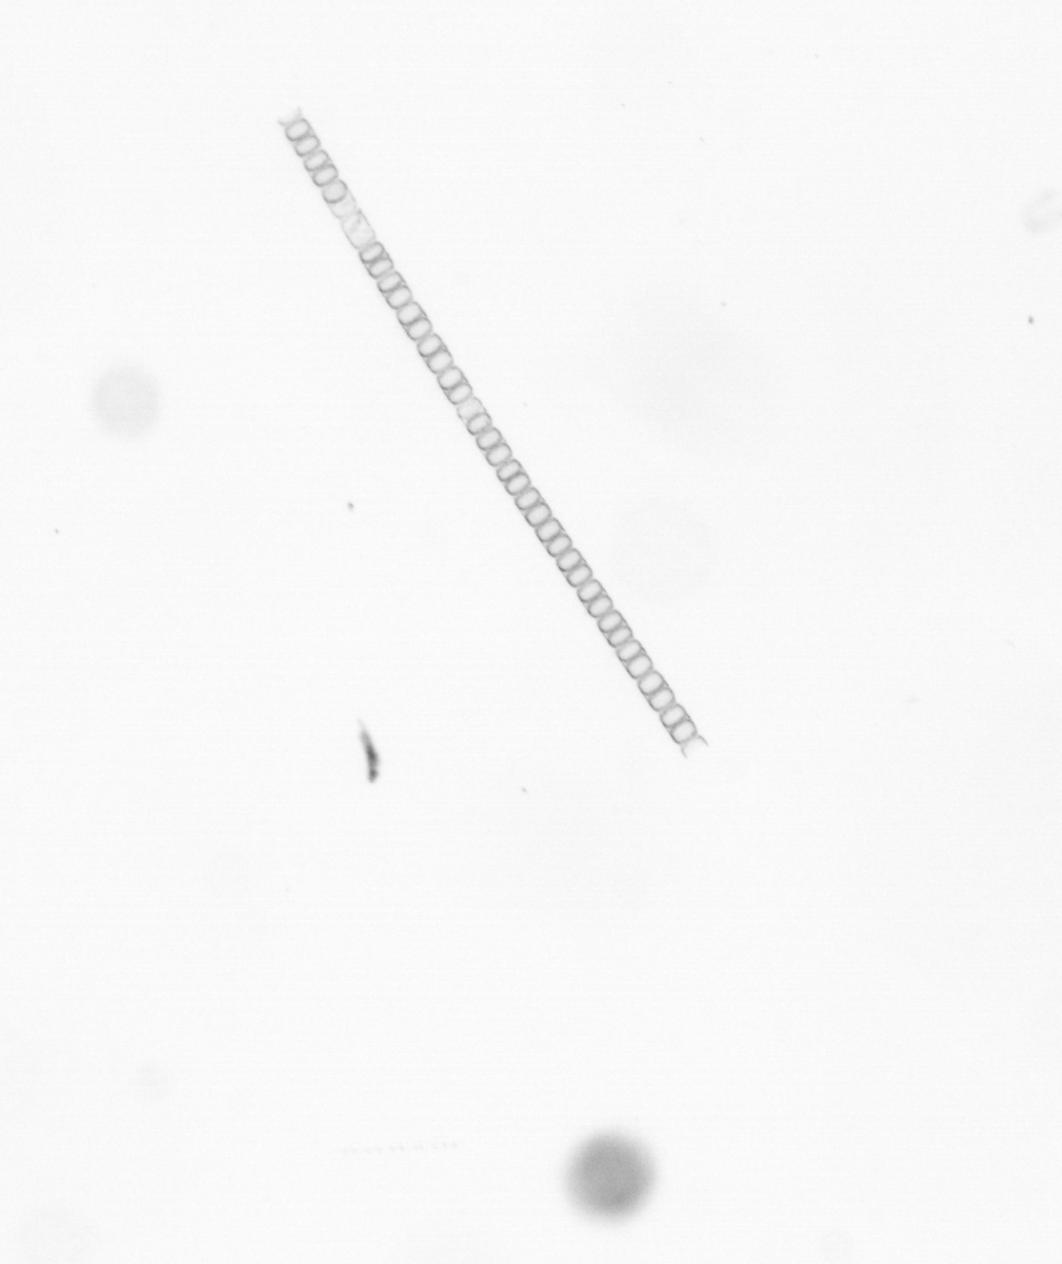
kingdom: Chromista
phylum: Ochrophyta
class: Bacillariophyceae
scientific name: Bacillariophyceae
